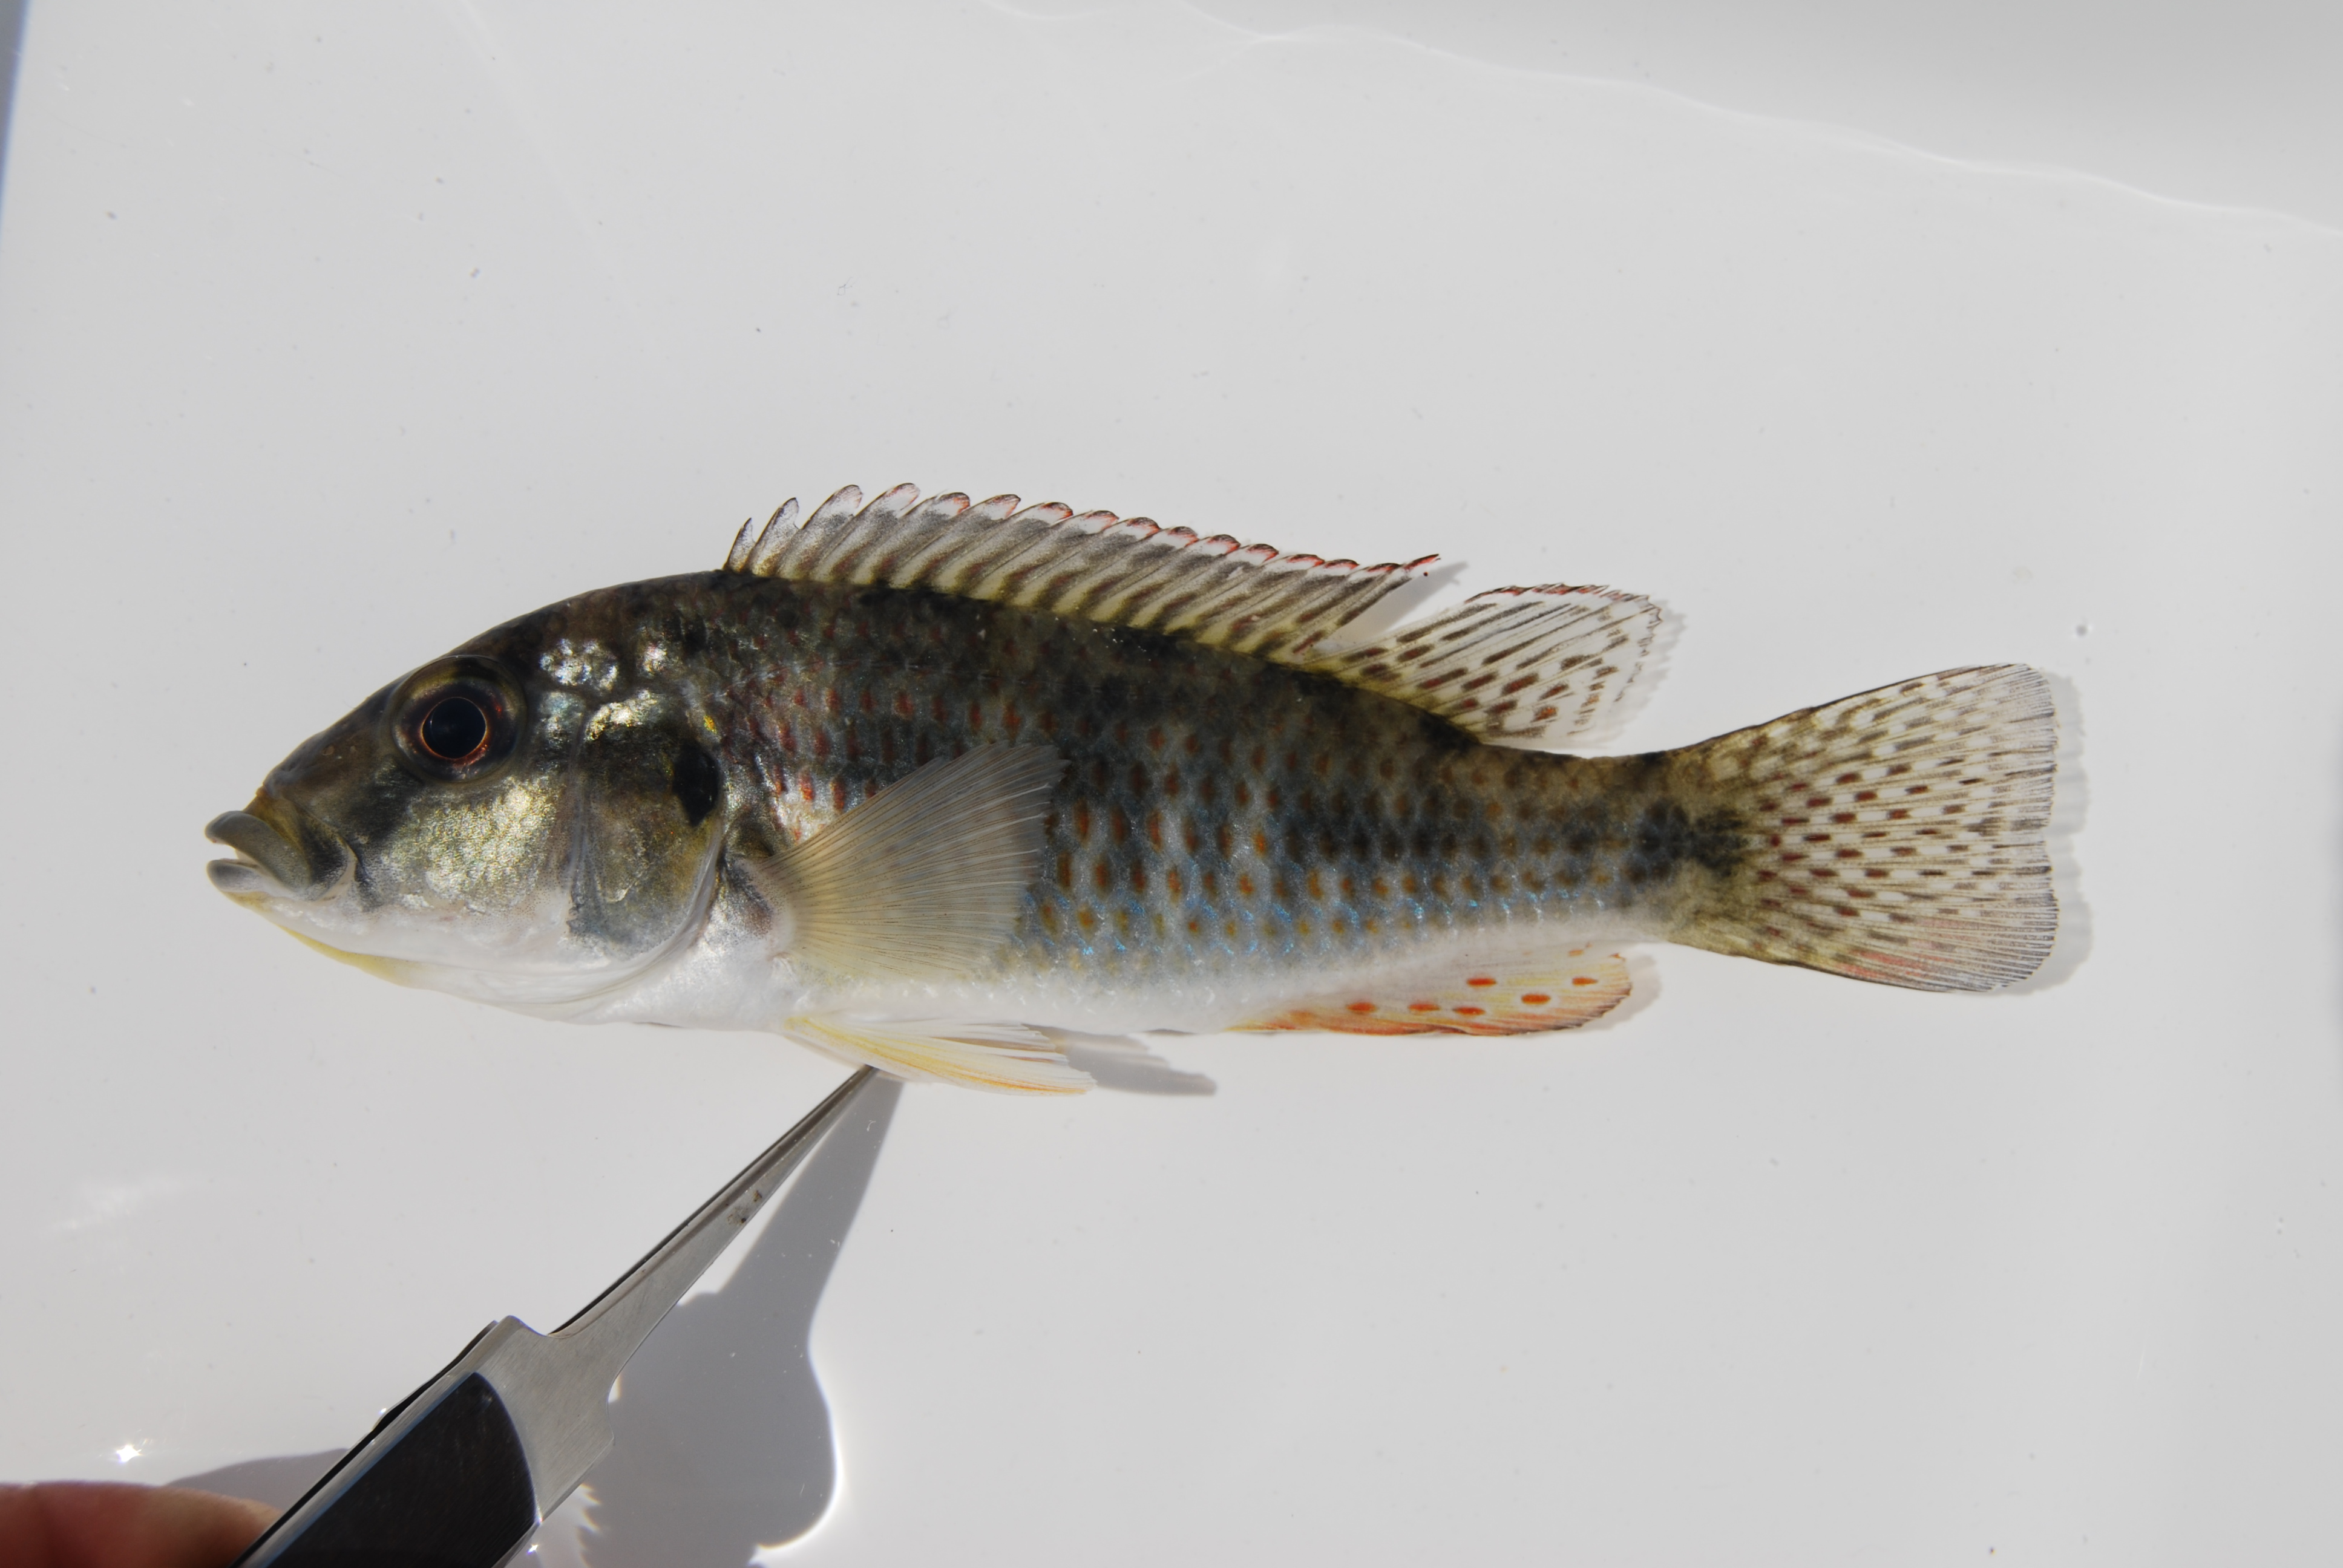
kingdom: Animalia
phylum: Chordata
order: Perciformes
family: Cichlidae
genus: Pharyngochromis
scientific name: Pharyngochromis acuticeps
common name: Zambezi happy
